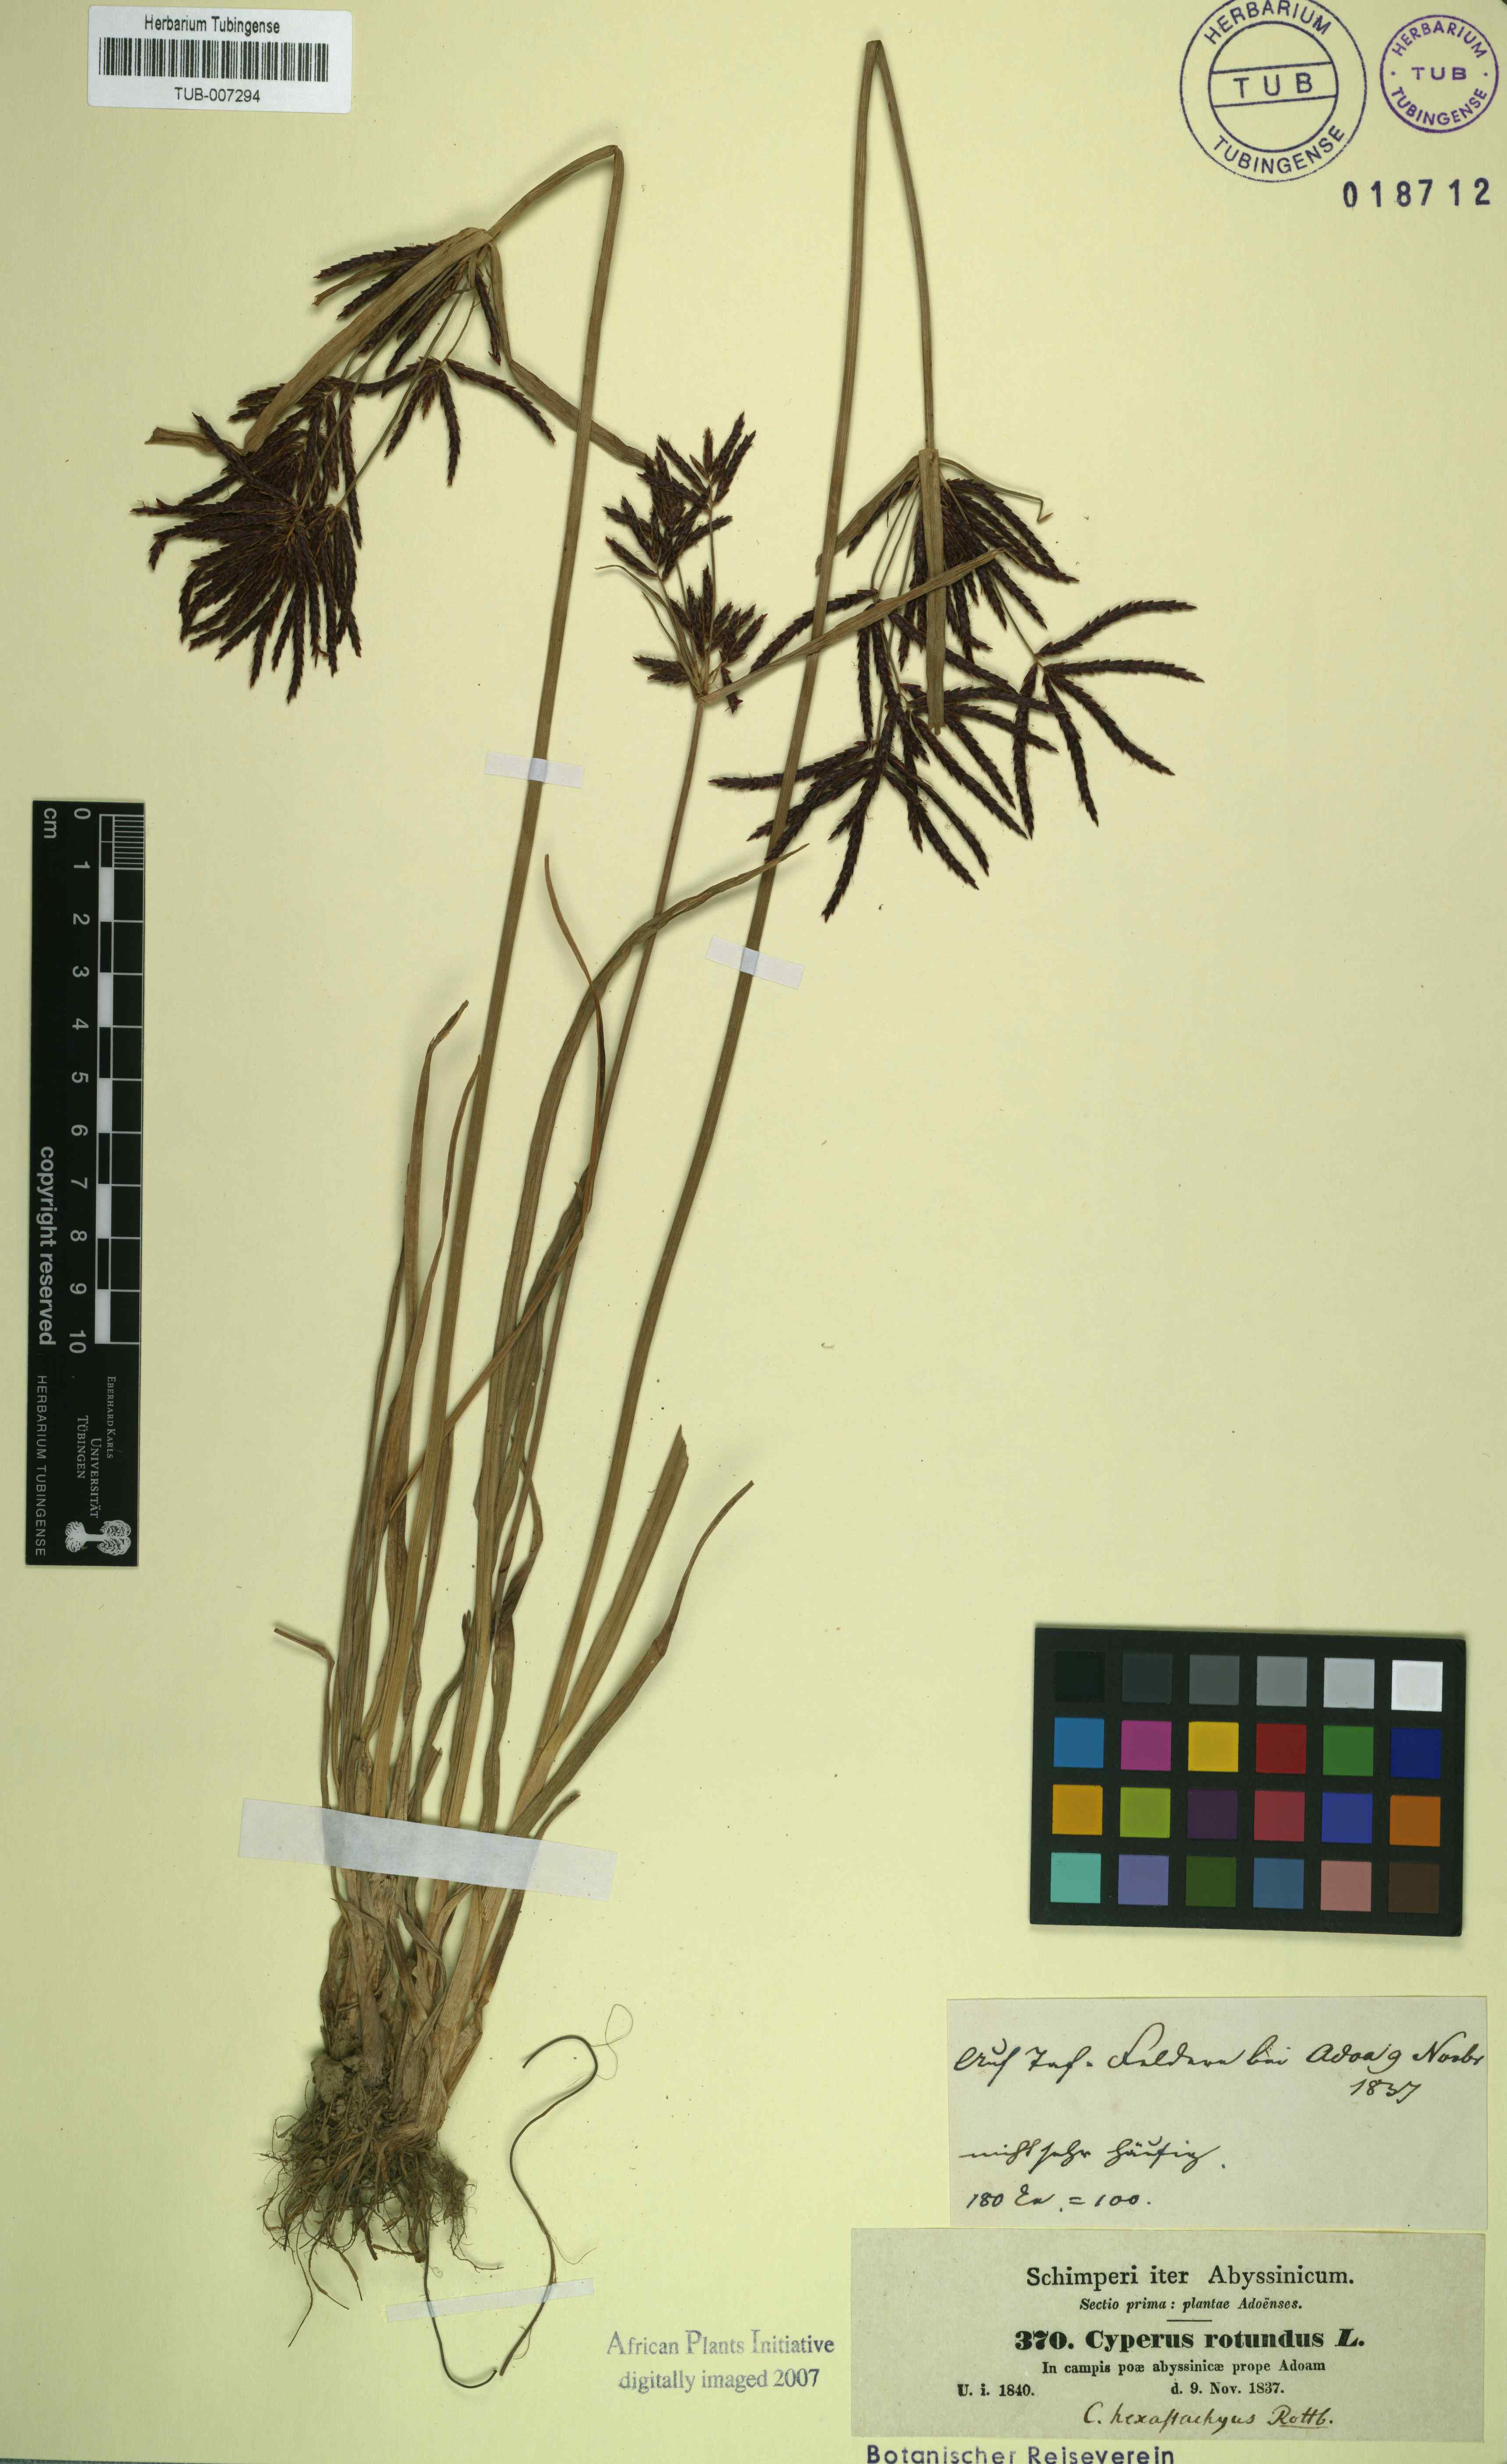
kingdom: Plantae
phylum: Tracheophyta
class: Liliopsida
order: Poales
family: Cyperaceae
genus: Cyperus
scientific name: Cyperus rotundus
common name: Nutgrass
